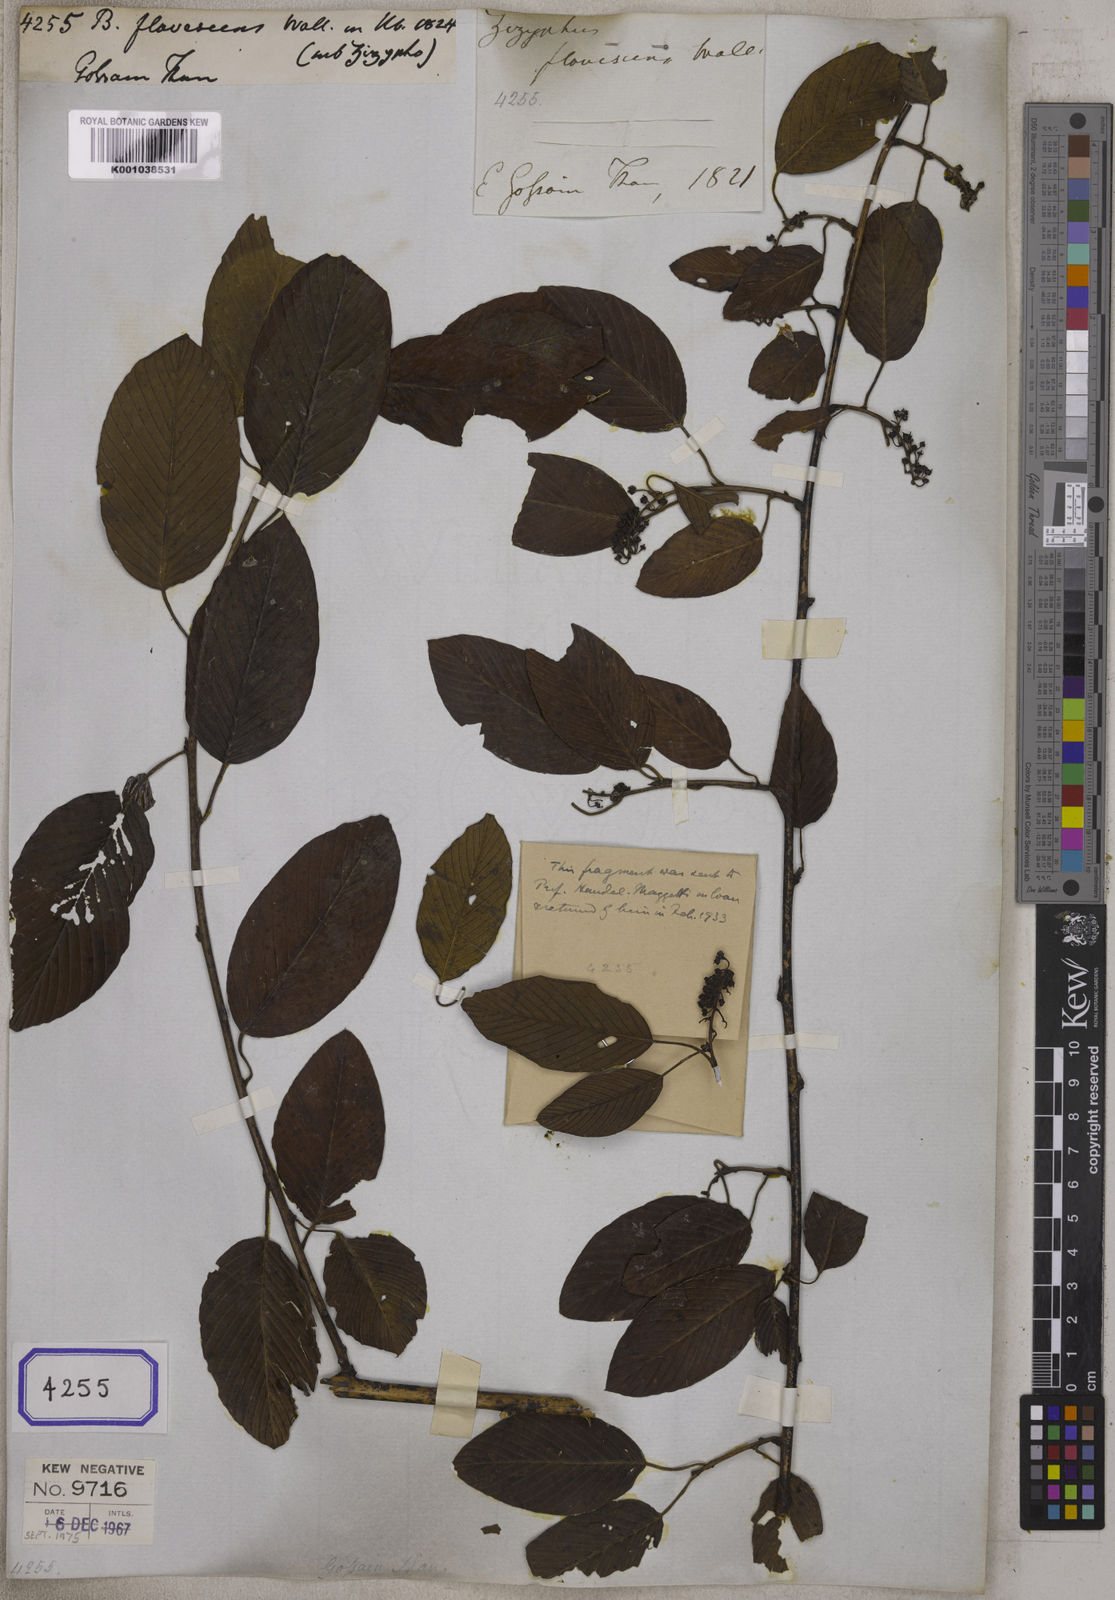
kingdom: Plantae
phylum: Tracheophyta
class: Magnoliopsida
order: Rosales
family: Rhamnaceae
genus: Berchemia
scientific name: Berchemia
